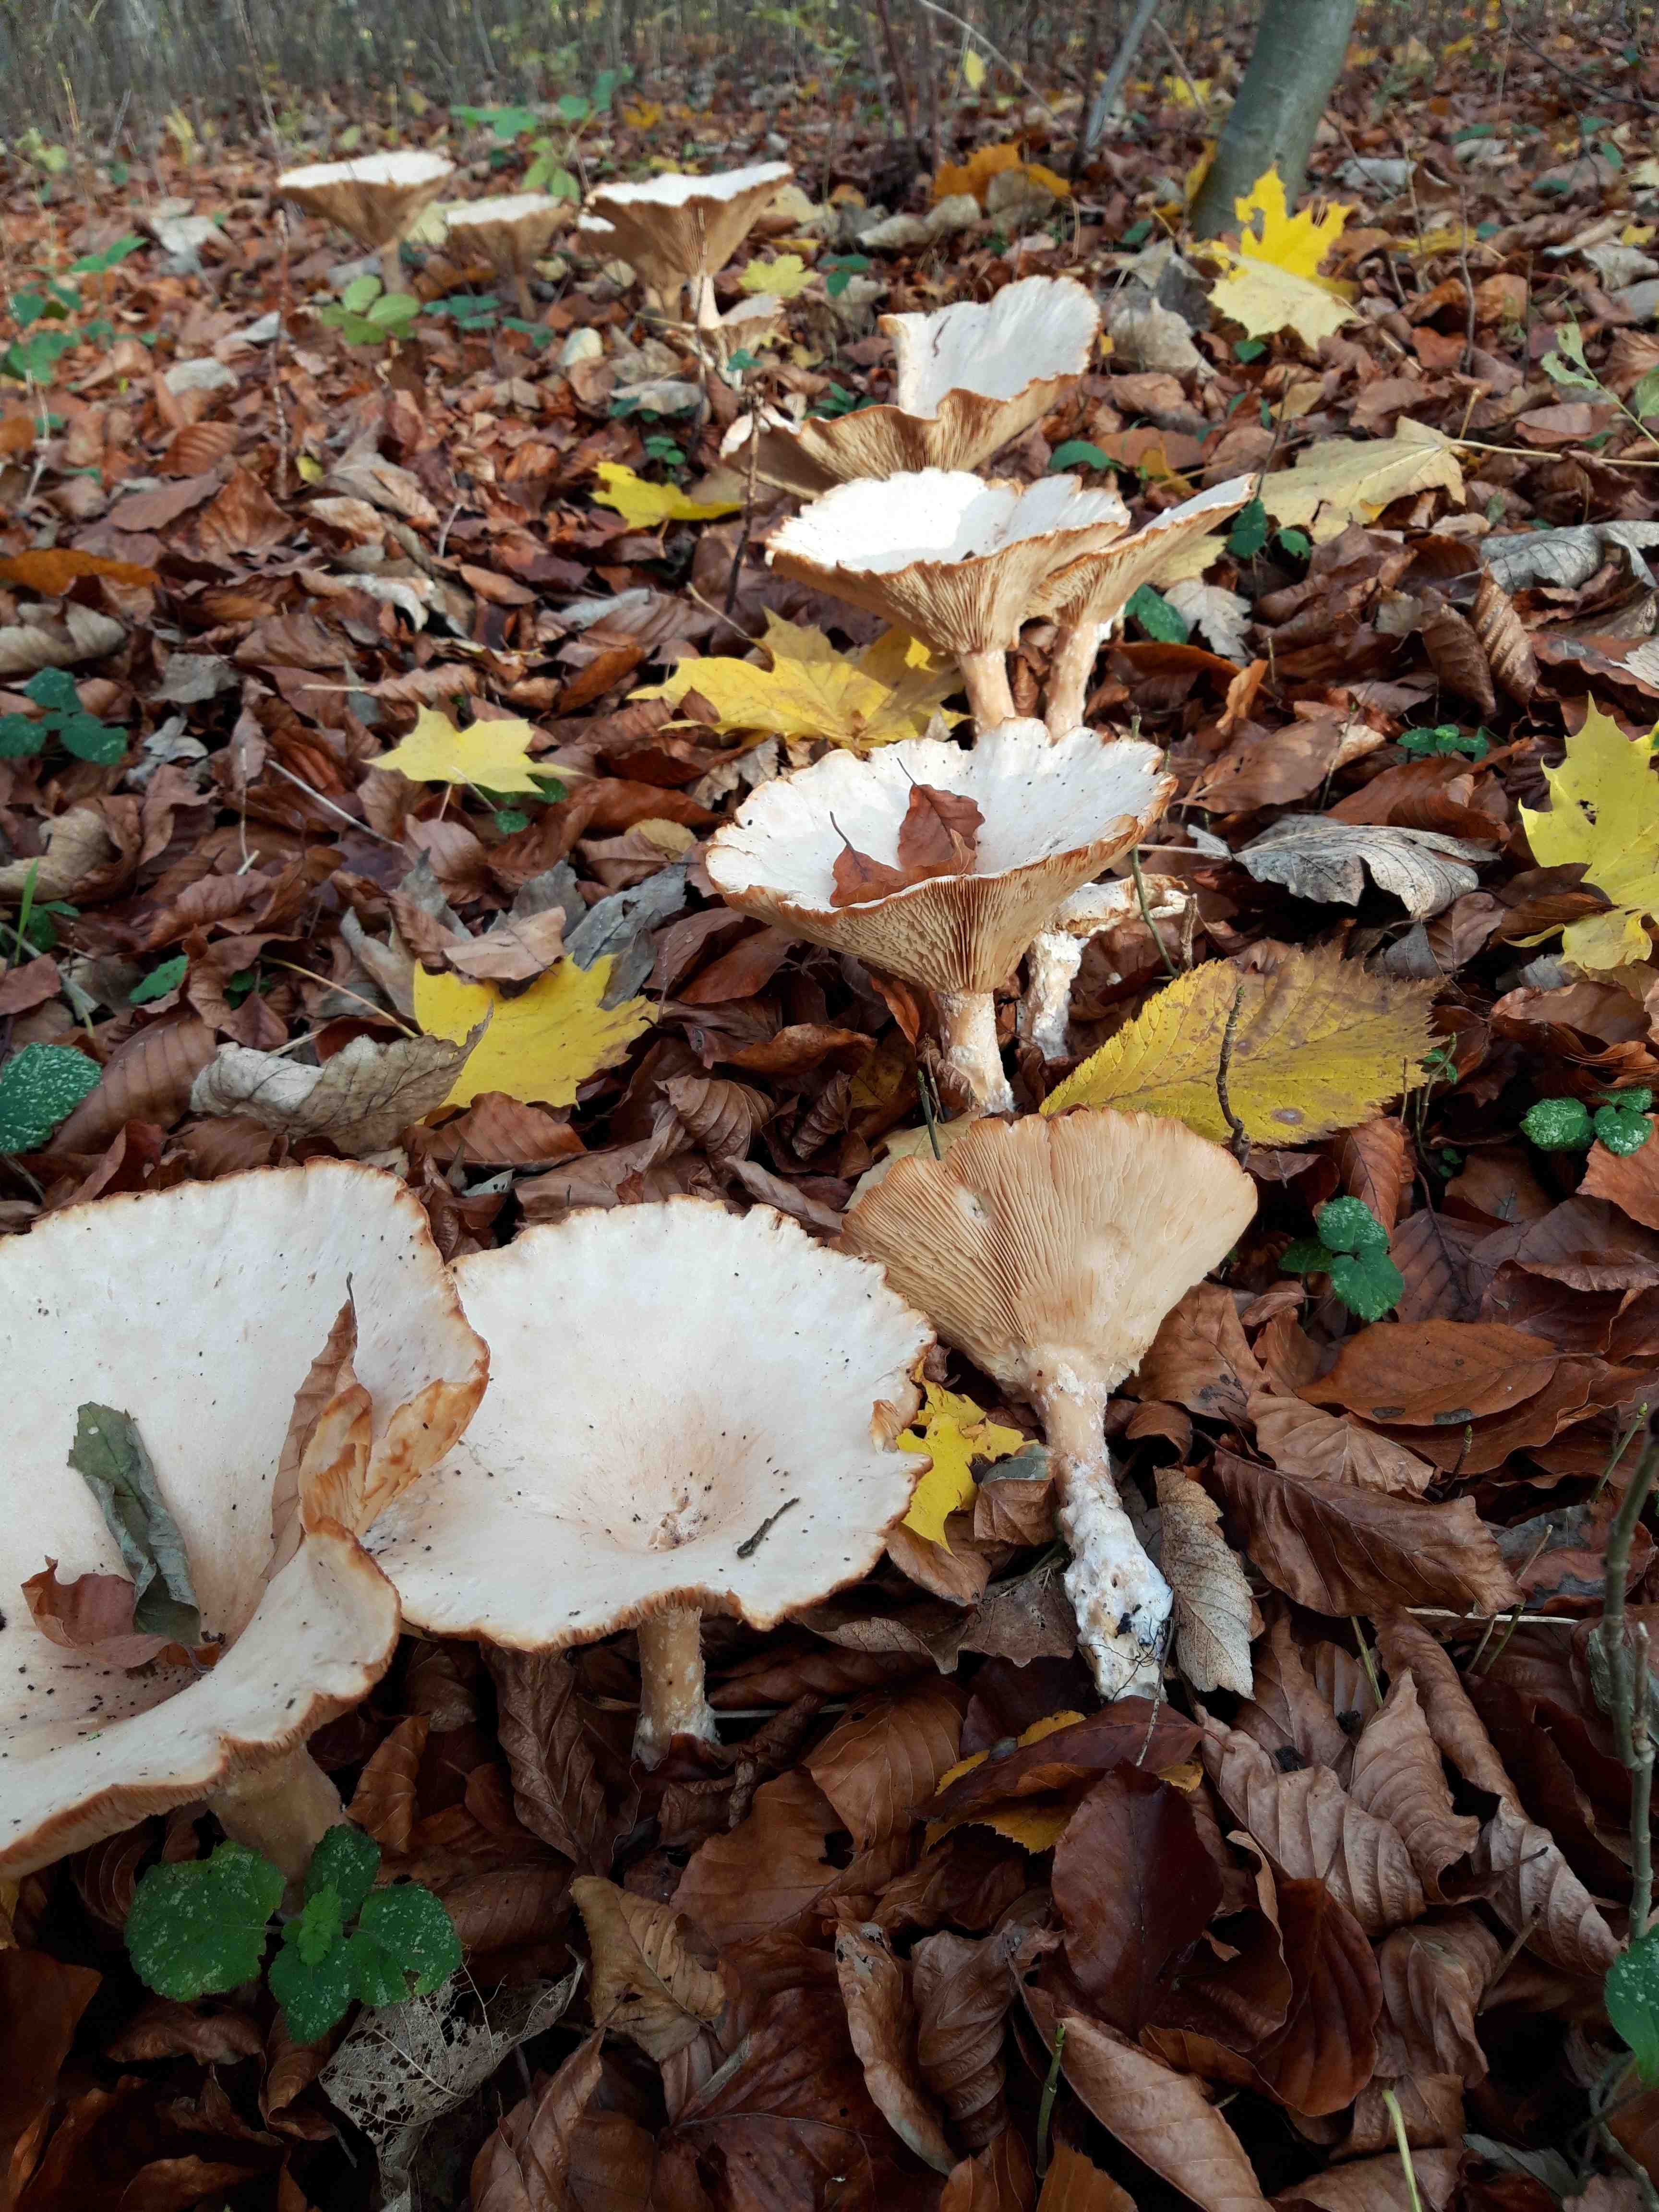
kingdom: Fungi
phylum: Basidiomycota
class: Agaricomycetes
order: Agaricales
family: Tricholomataceae
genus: Infundibulicybe
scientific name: Infundibulicybe geotropa
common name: stor tragthat
